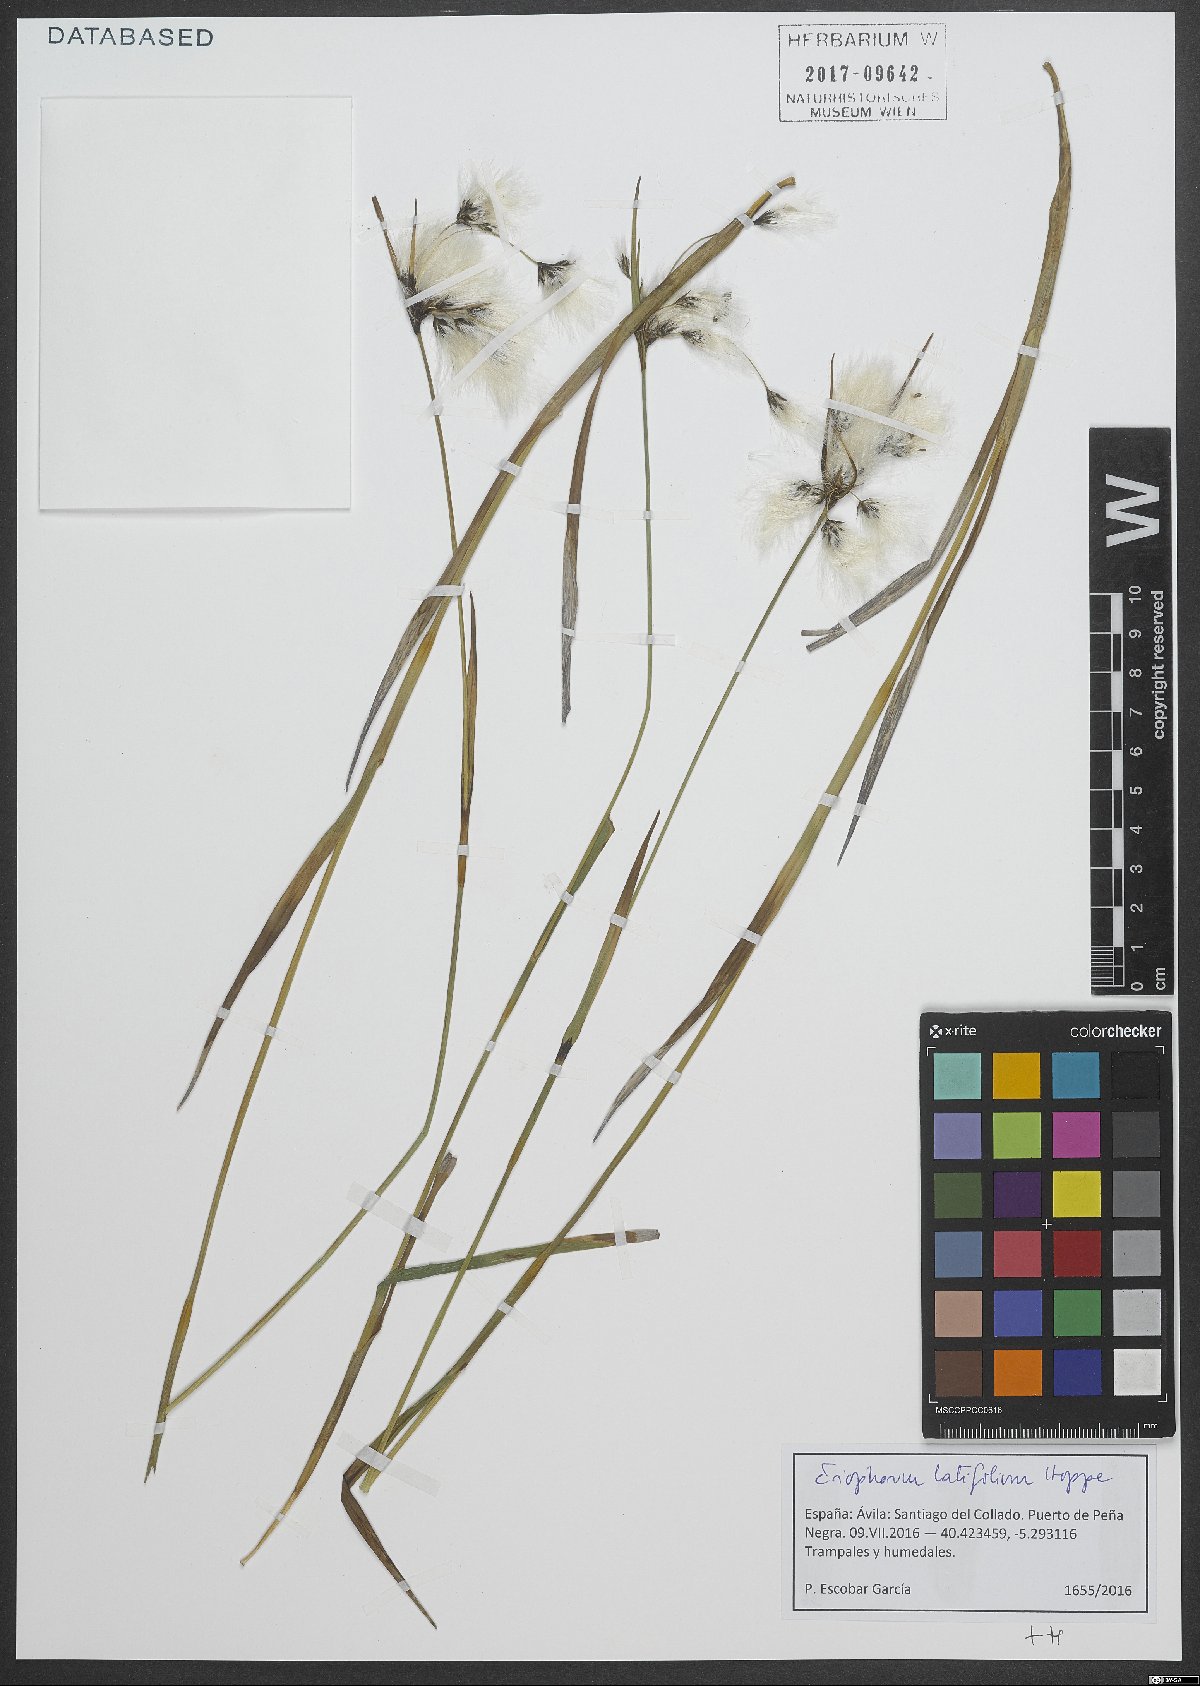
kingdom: Plantae
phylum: Tracheophyta
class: Liliopsida
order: Poales
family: Cyperaceae
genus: Eriophorum
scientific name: Eriophorum latifolium
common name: Broad-leaved cottongrass
